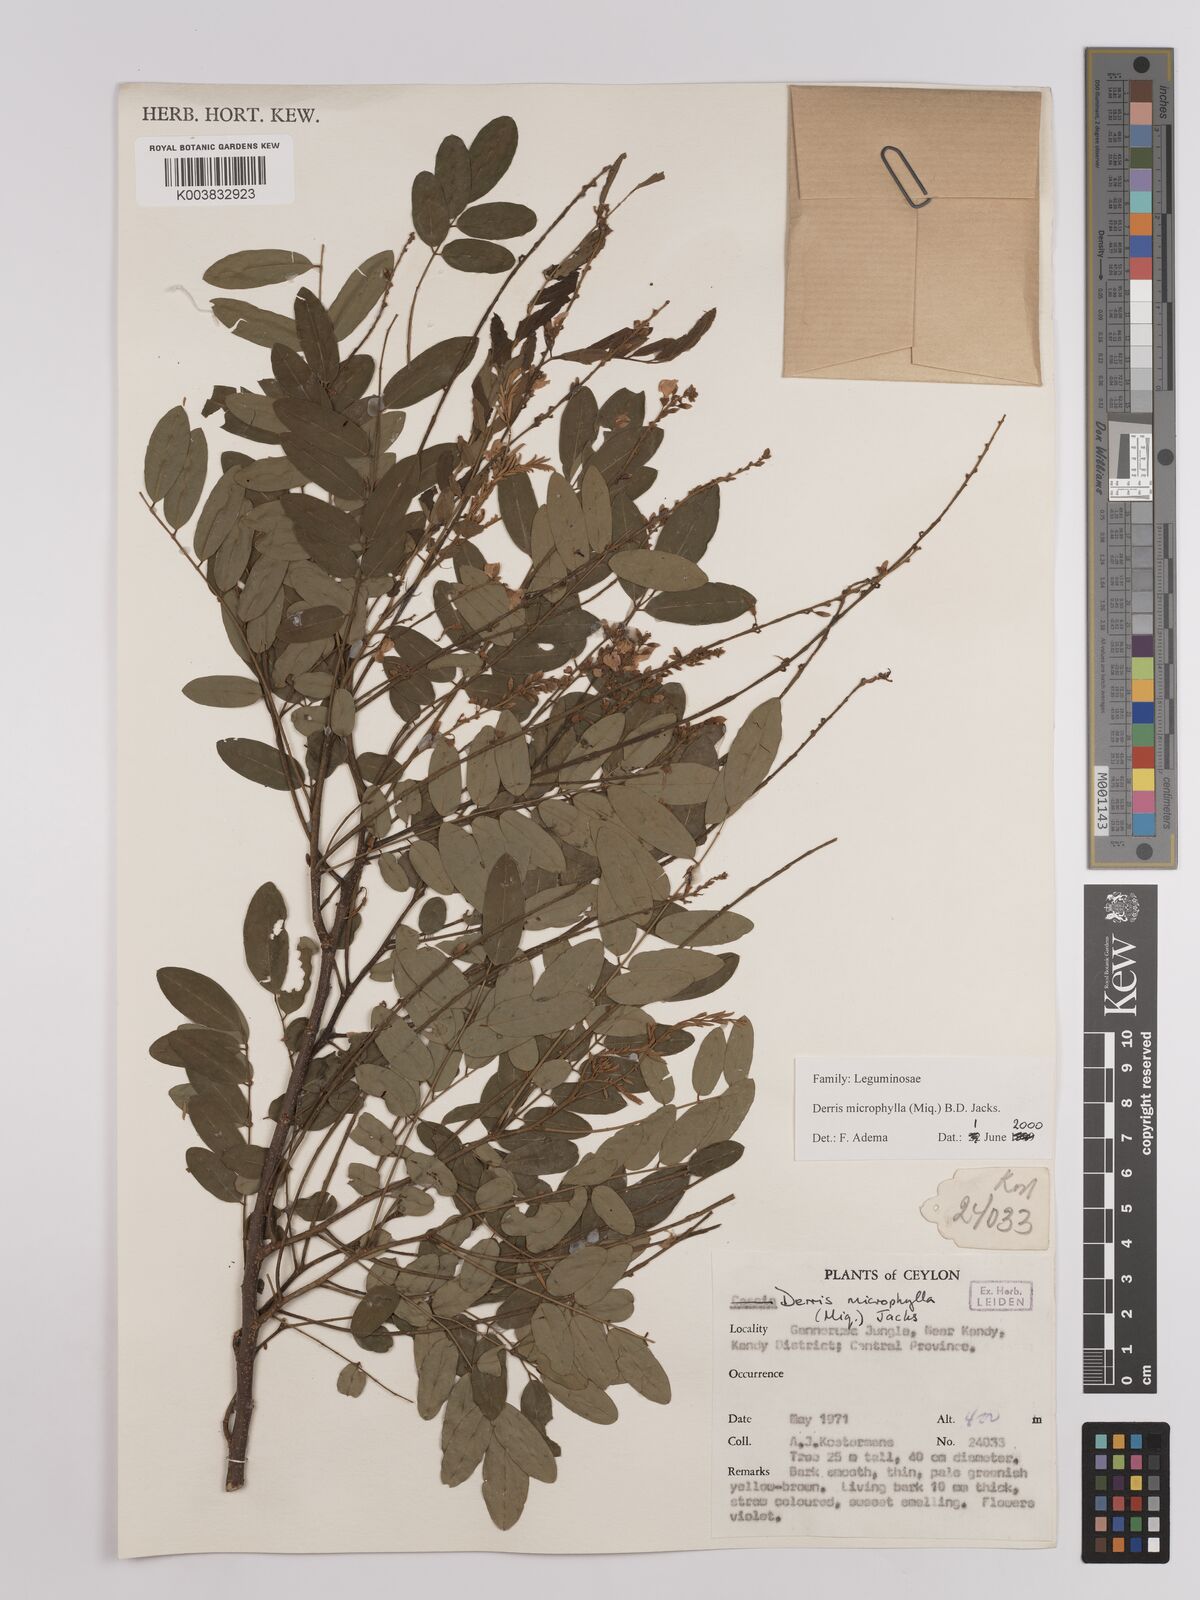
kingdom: Plantae
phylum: Tracheophyta
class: Magnoliopsida
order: Fabales
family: Fabaceae
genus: Brachypterum
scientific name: Brachypterum microphyllum
